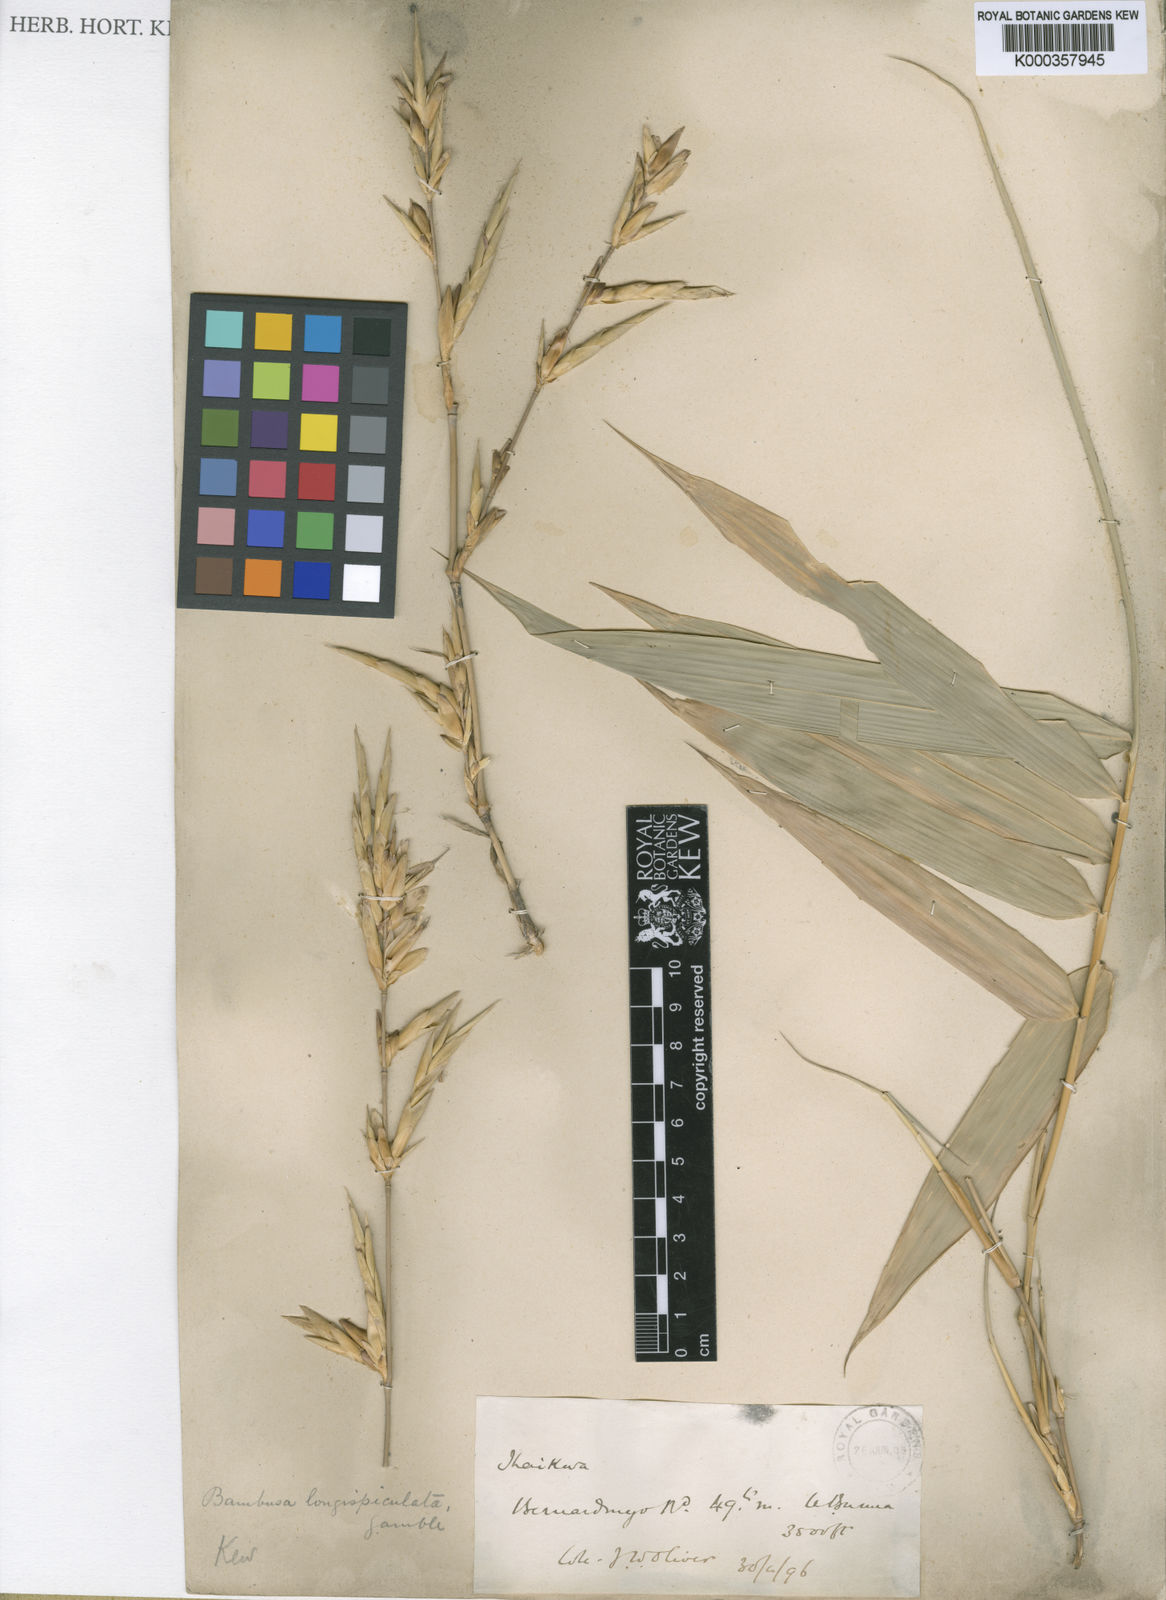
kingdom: Plantae
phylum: Tracheophyta
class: Liliopsida
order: Poales
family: Poaceae
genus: Bambusa
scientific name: Bambusa
